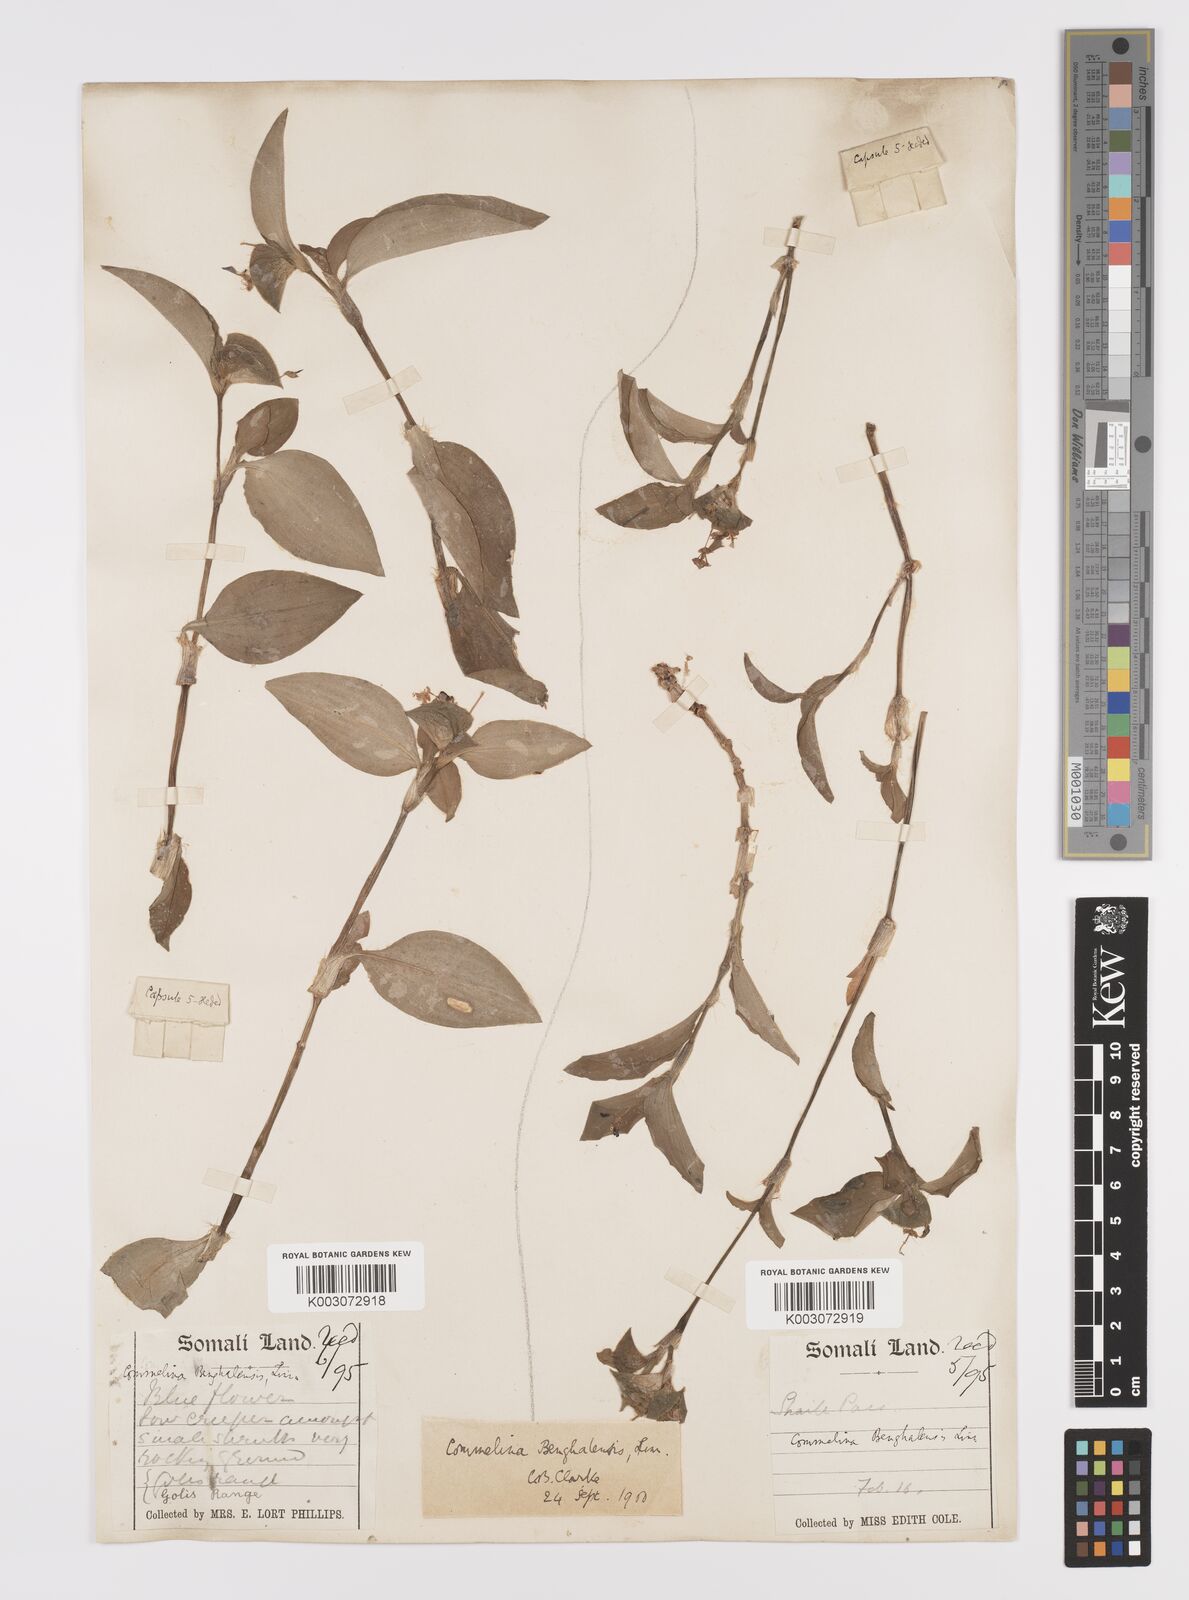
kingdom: Plantae
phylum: Tracheophyta
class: Liliopsida
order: Commelinales
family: Commelinaceae
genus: Commelina
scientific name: Commelina benghalensis
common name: Jio
